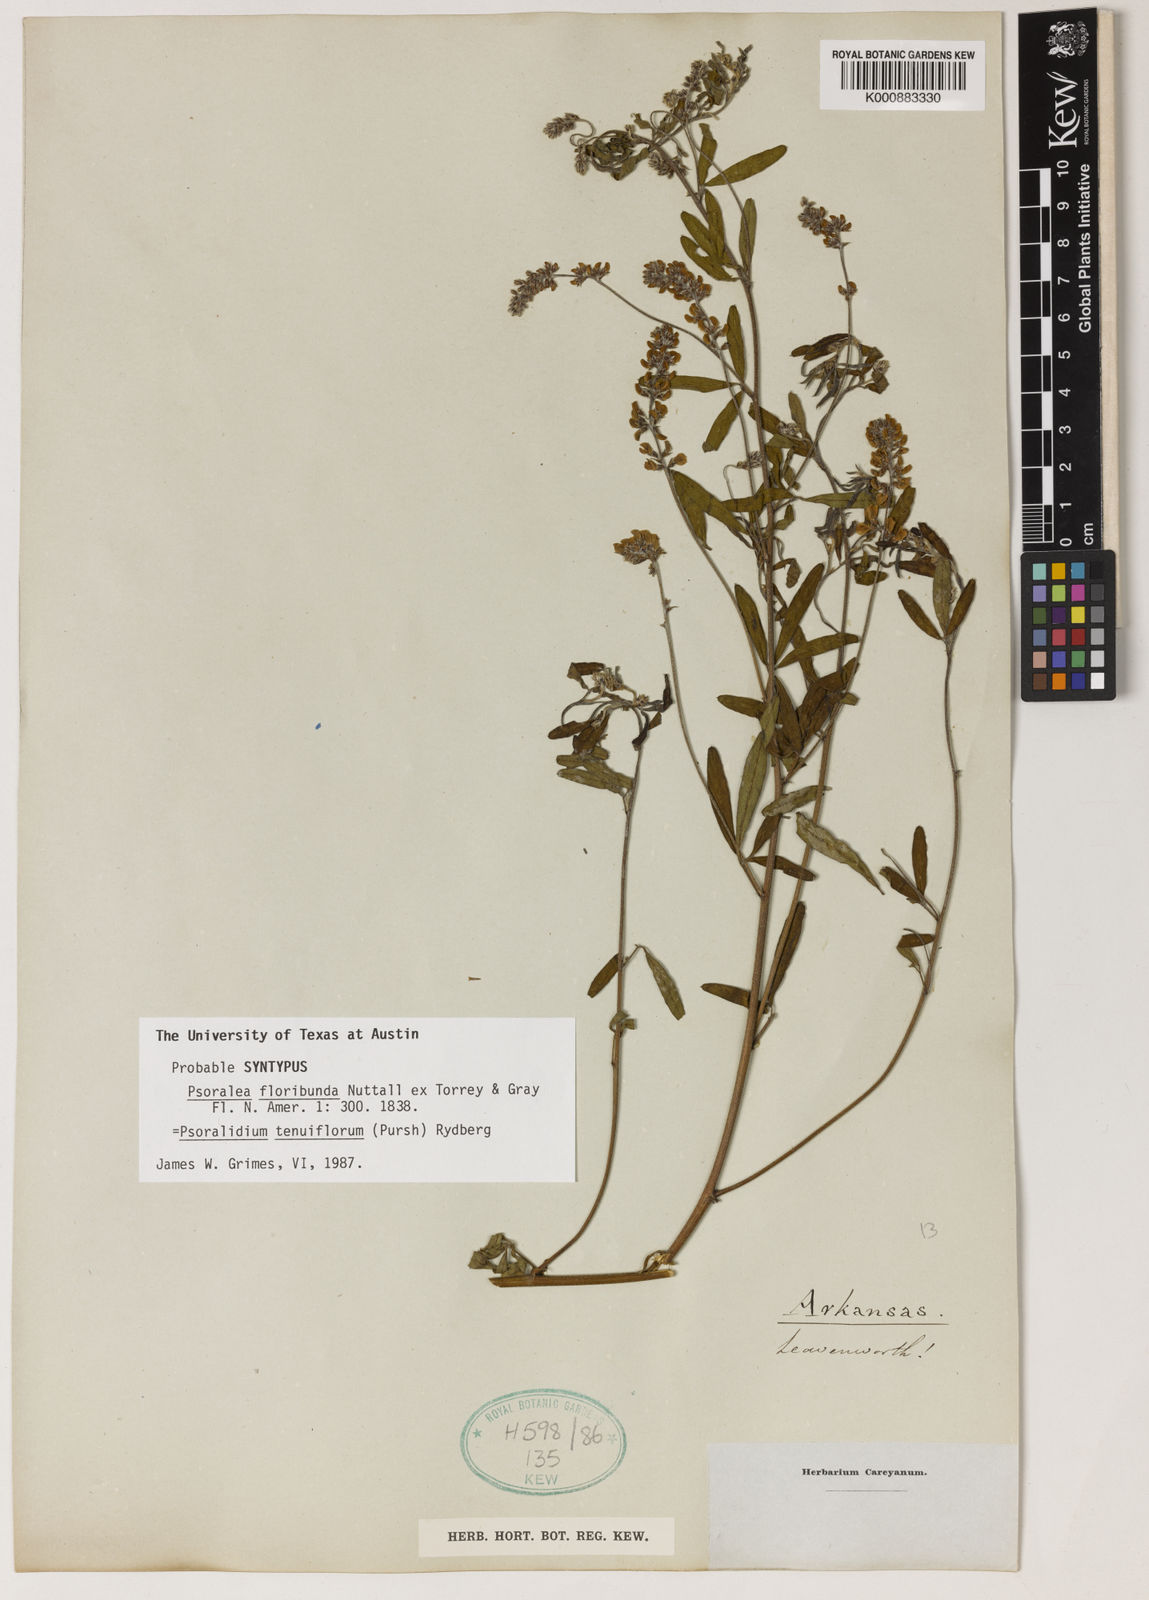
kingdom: Plantae
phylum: Tracheophyta
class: Magnoliopsida
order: Fabales
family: Fabaceae
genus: Pediomelum
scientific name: Pediomelum tenuiflorum
